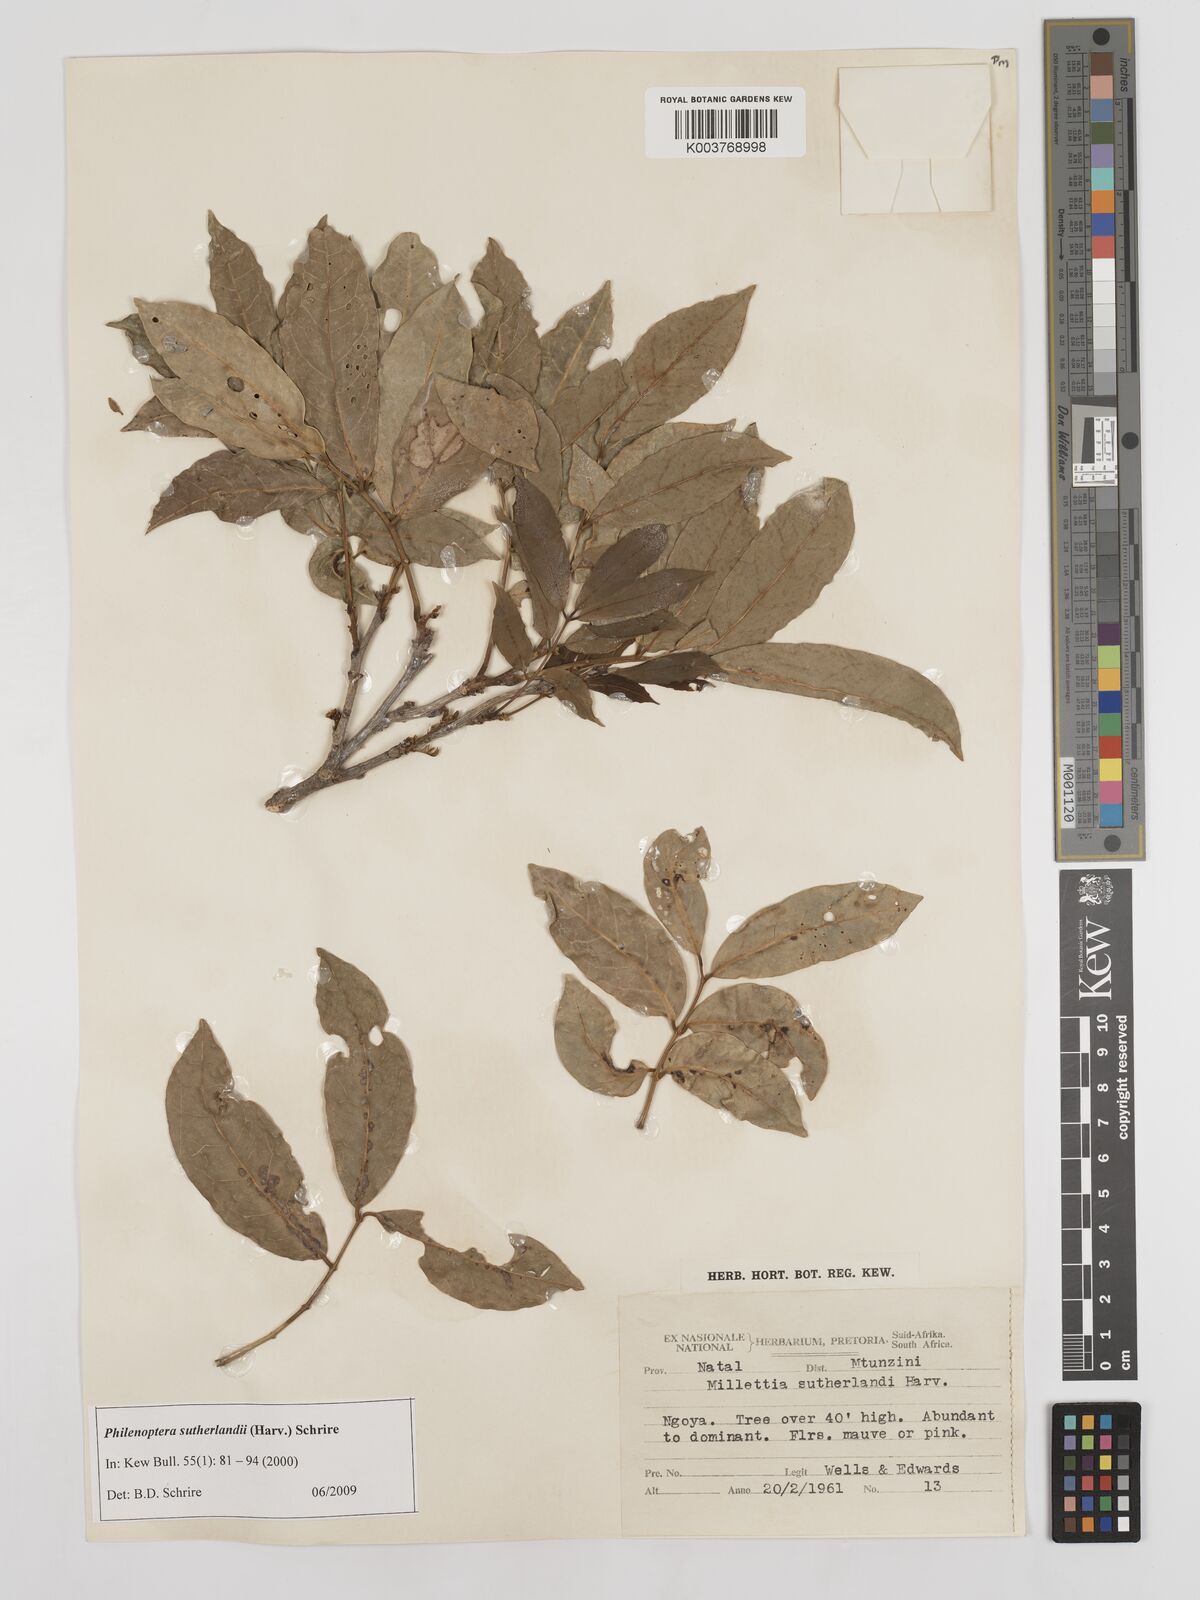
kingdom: Plantae
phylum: Tracheophyta
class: Magnoliopsida
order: Fabales
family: Fabaceae
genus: Philenoptera
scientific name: Philenoptera sutherlandii
